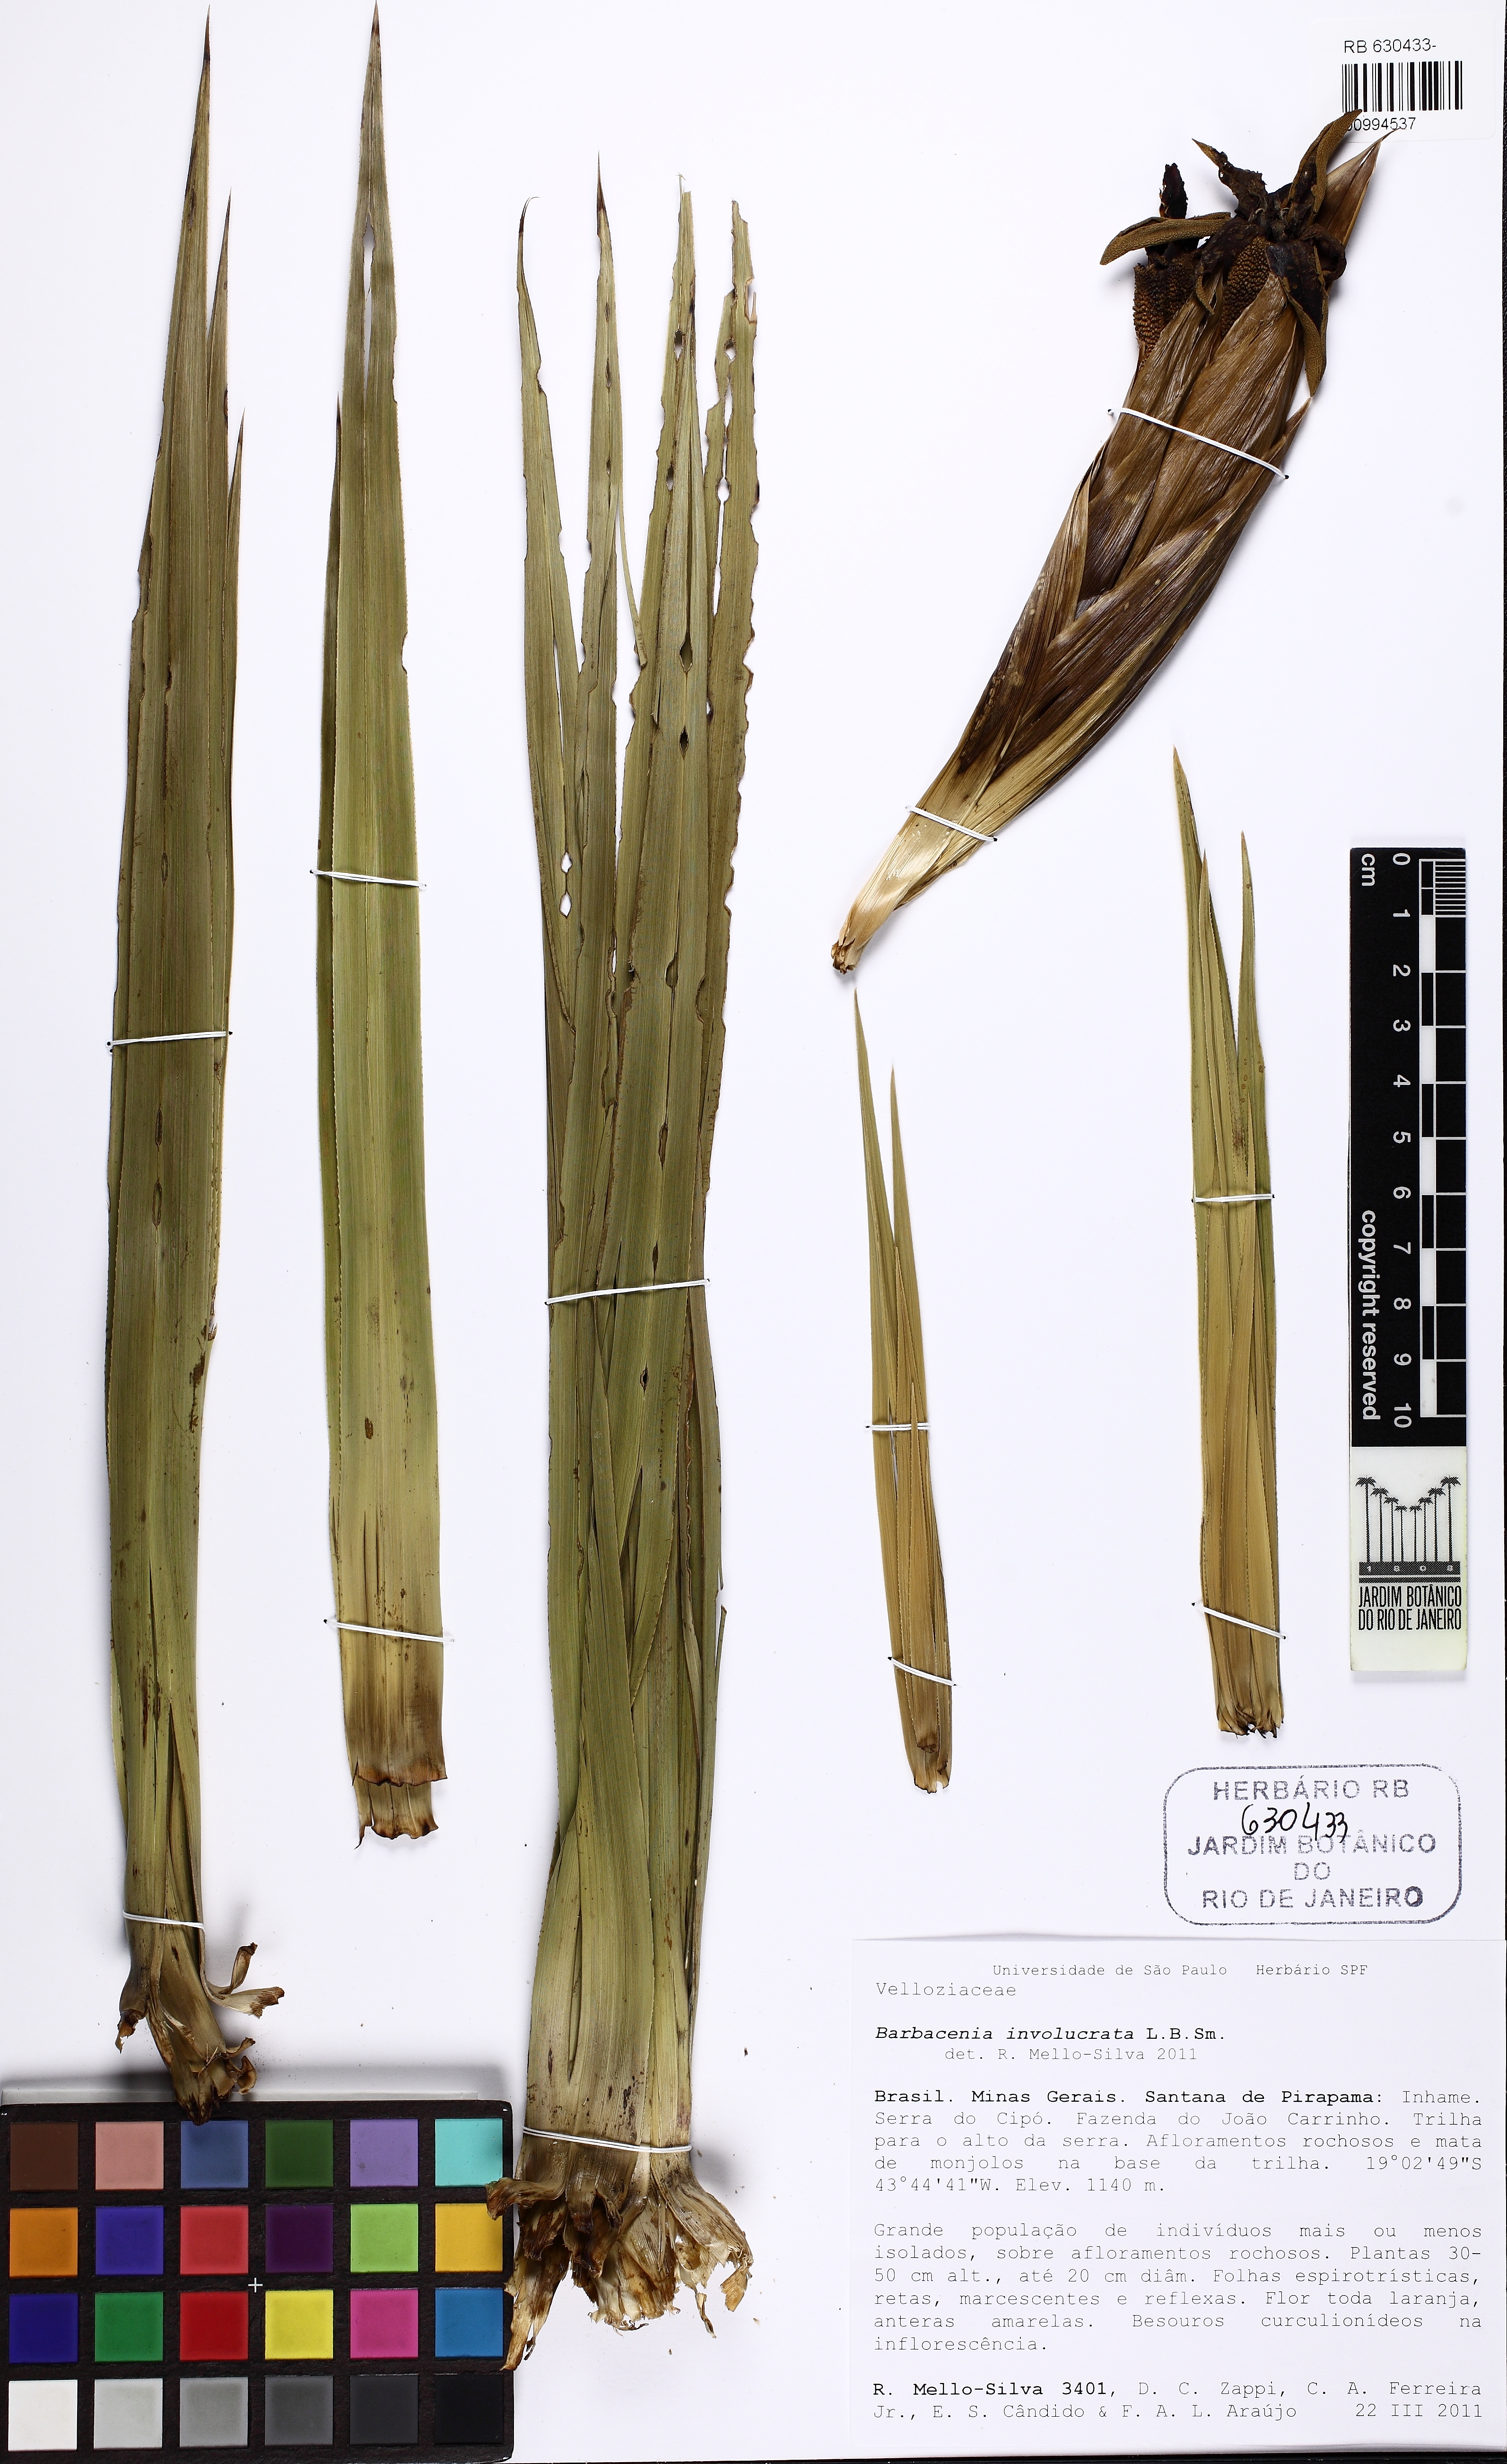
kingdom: Plantae
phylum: Tracheophyta
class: Liliopsida
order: Pandanales
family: Velloziaceae
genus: Barbacenia
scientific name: Barbacenia involucrata
